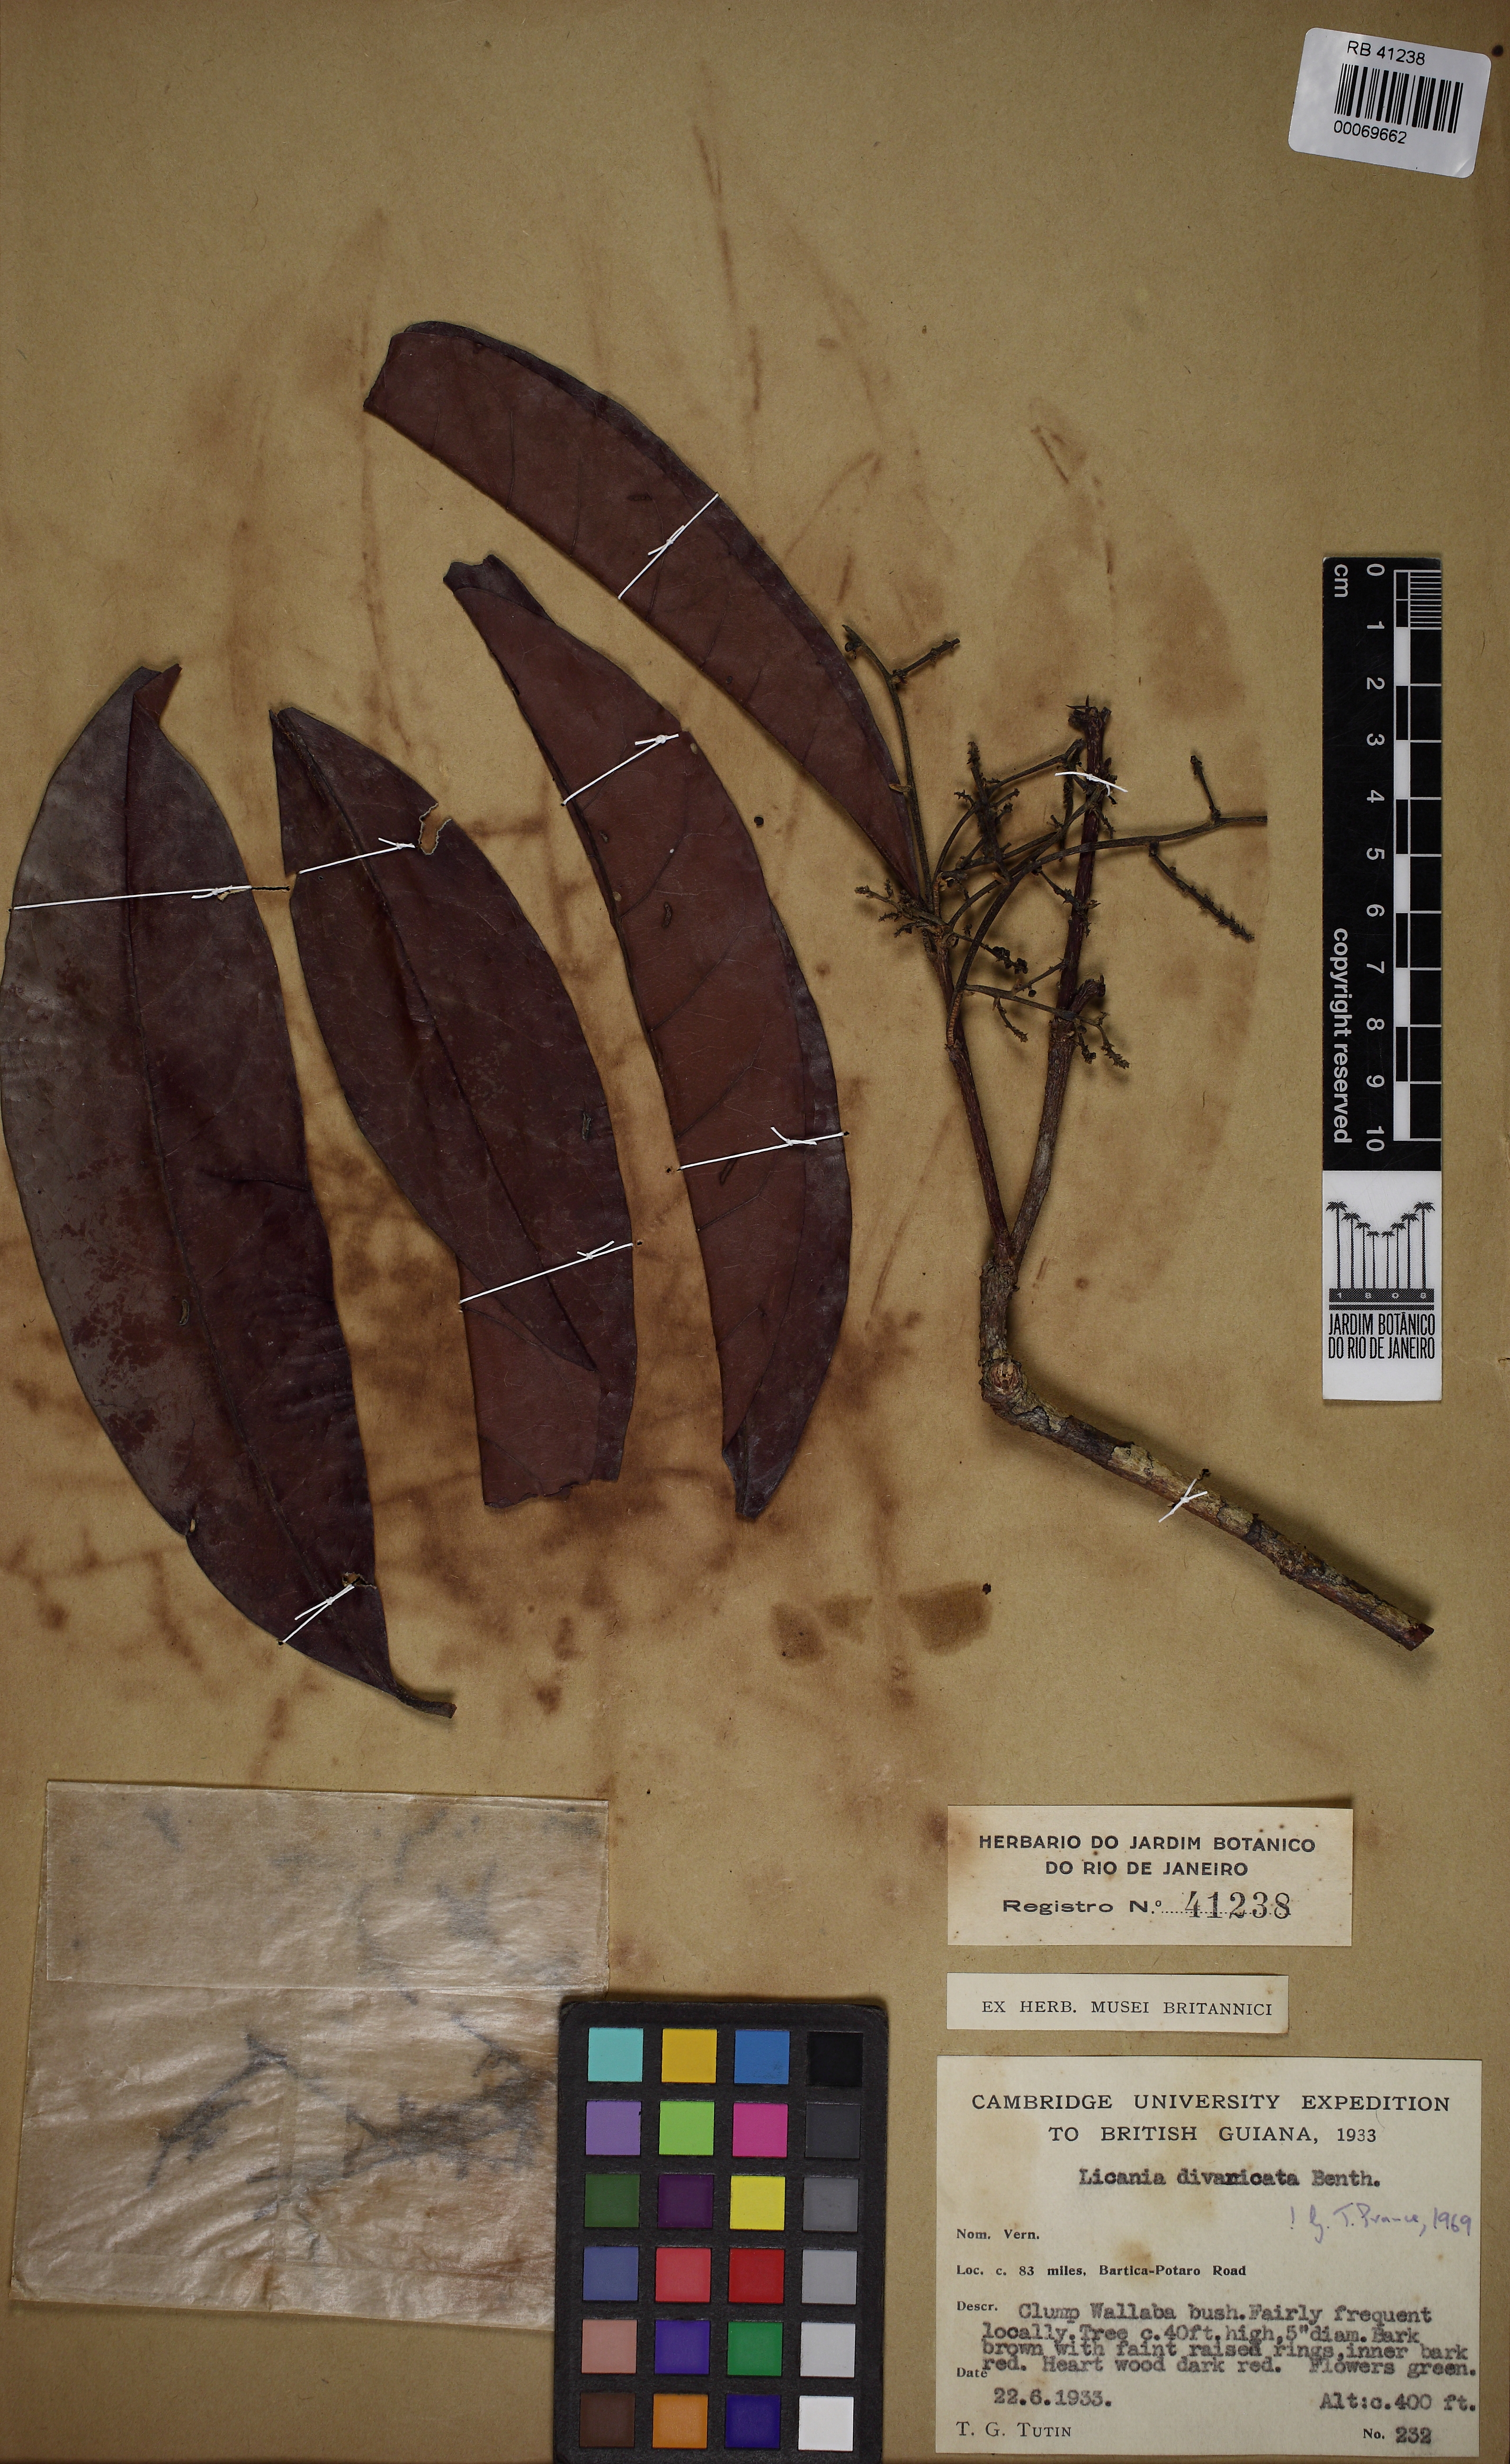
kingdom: Plantae
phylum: Tracheophyta
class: Magnoliopsida
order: Malpighiales
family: Chrysobalanaceae
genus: Hymenopus
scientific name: Hymenopus divaricatus
